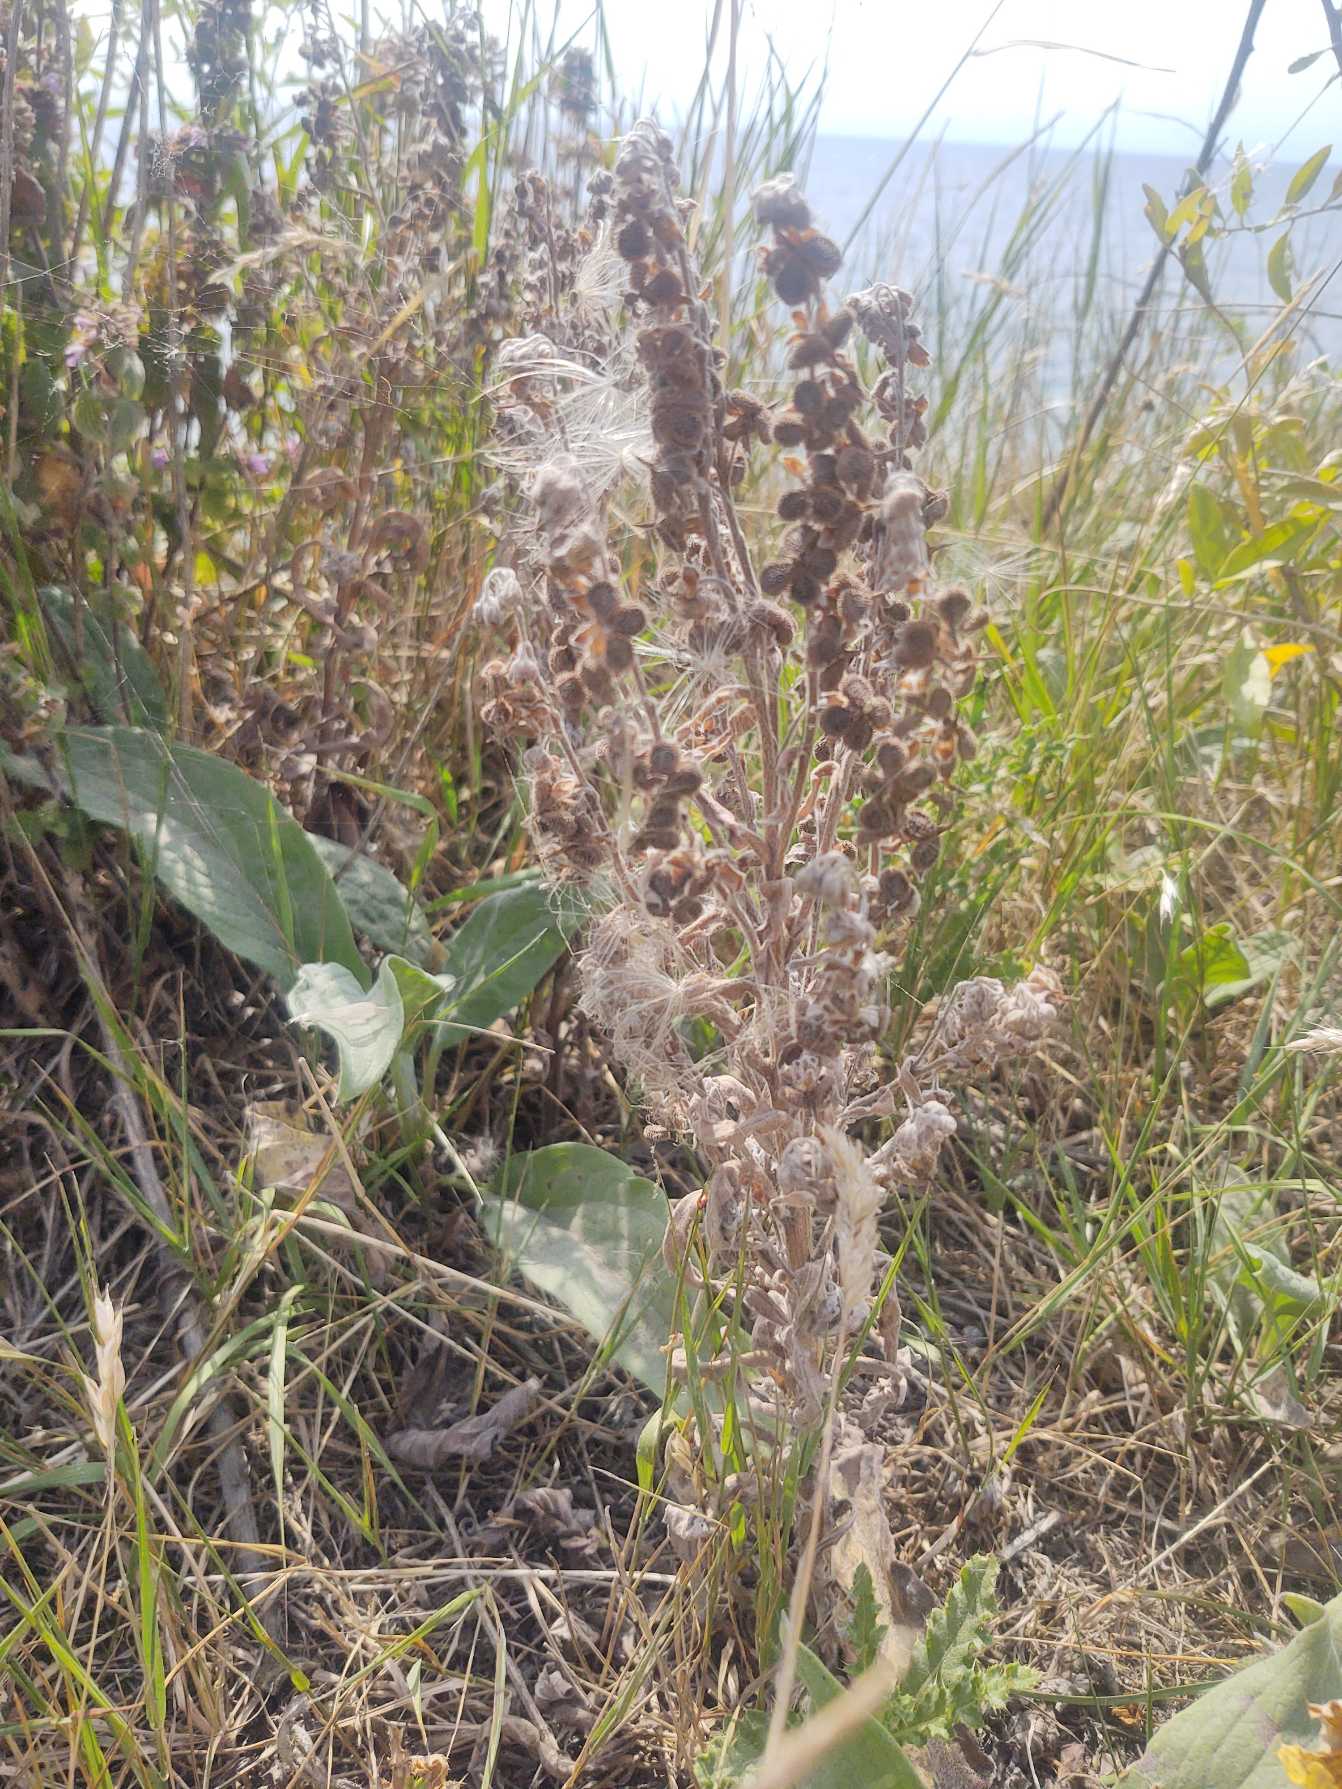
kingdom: Plantae
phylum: Tracheophyta
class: Magnoliopsida
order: Boraginales
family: Boraginaceae
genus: Cynoglossum
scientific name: Cynoglossum officinale
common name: Hundetunge
